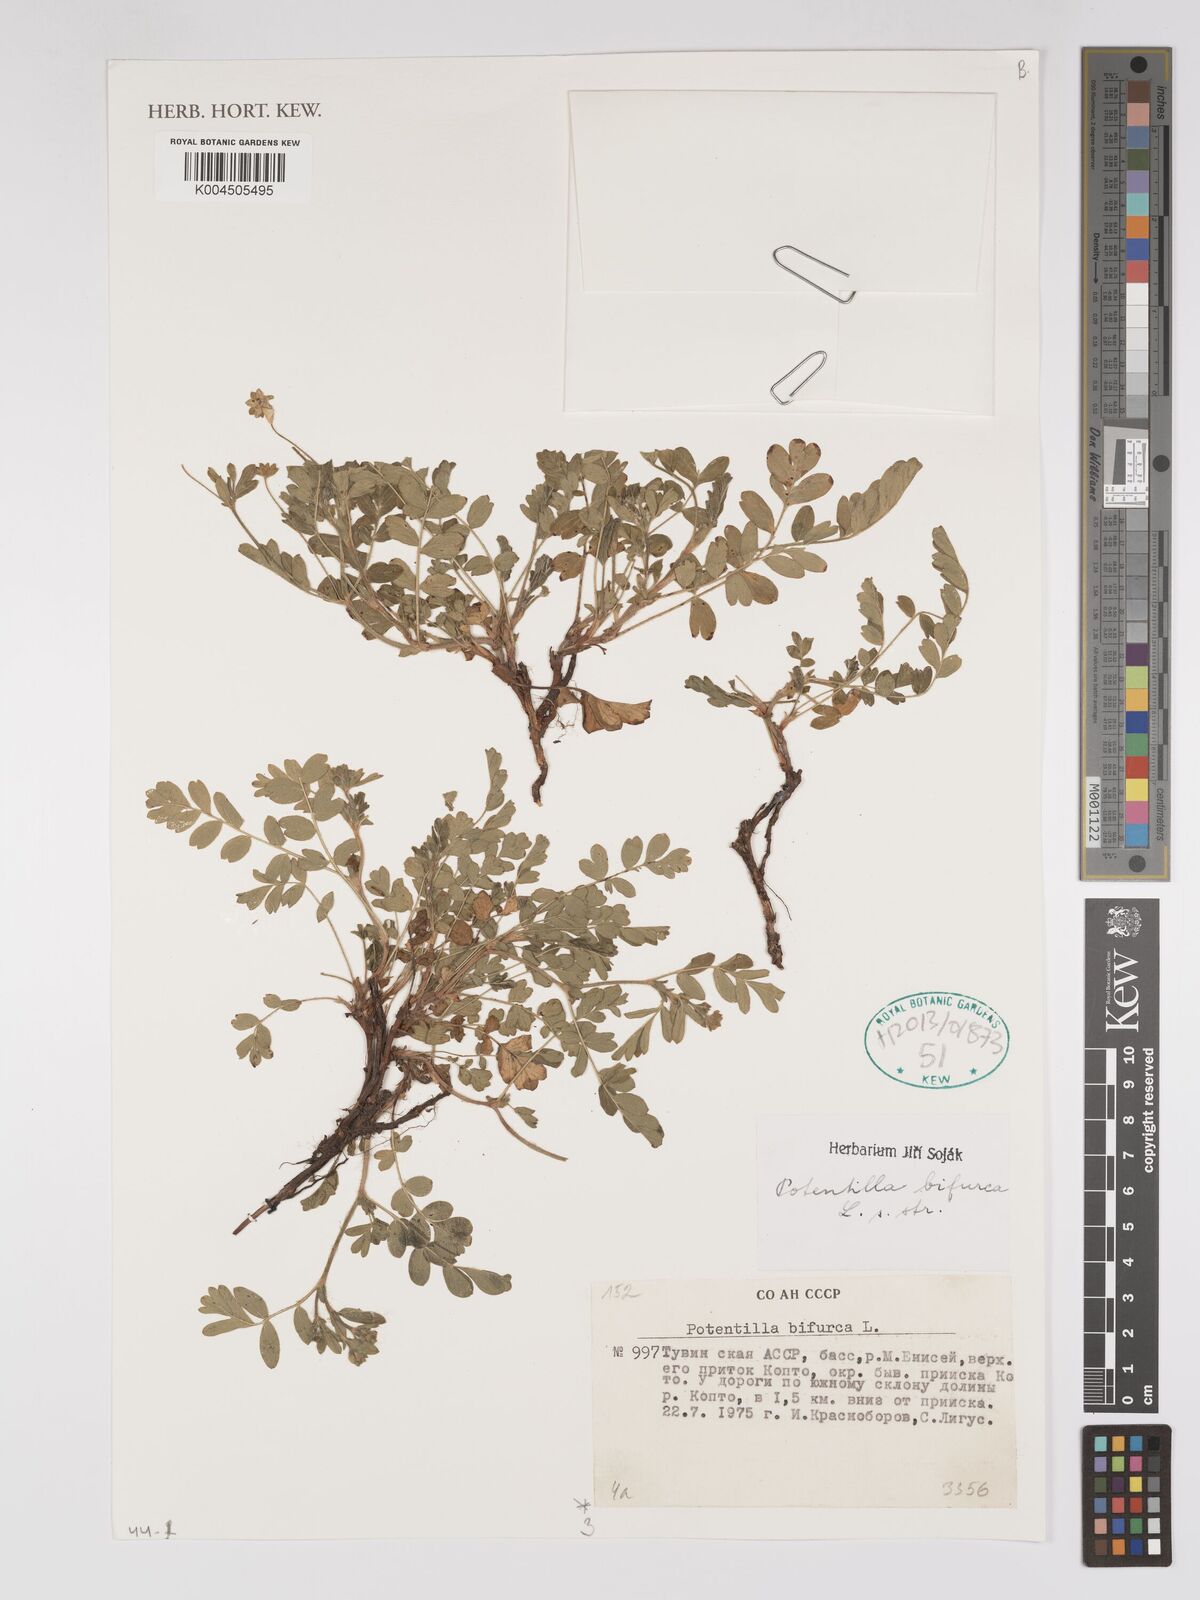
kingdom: Plantae
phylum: Tracheophyta
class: Magnoliopsida
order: Rosales
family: Rosaceae
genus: Sibbaldianthe
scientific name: Sibbaldianthe bifurca
